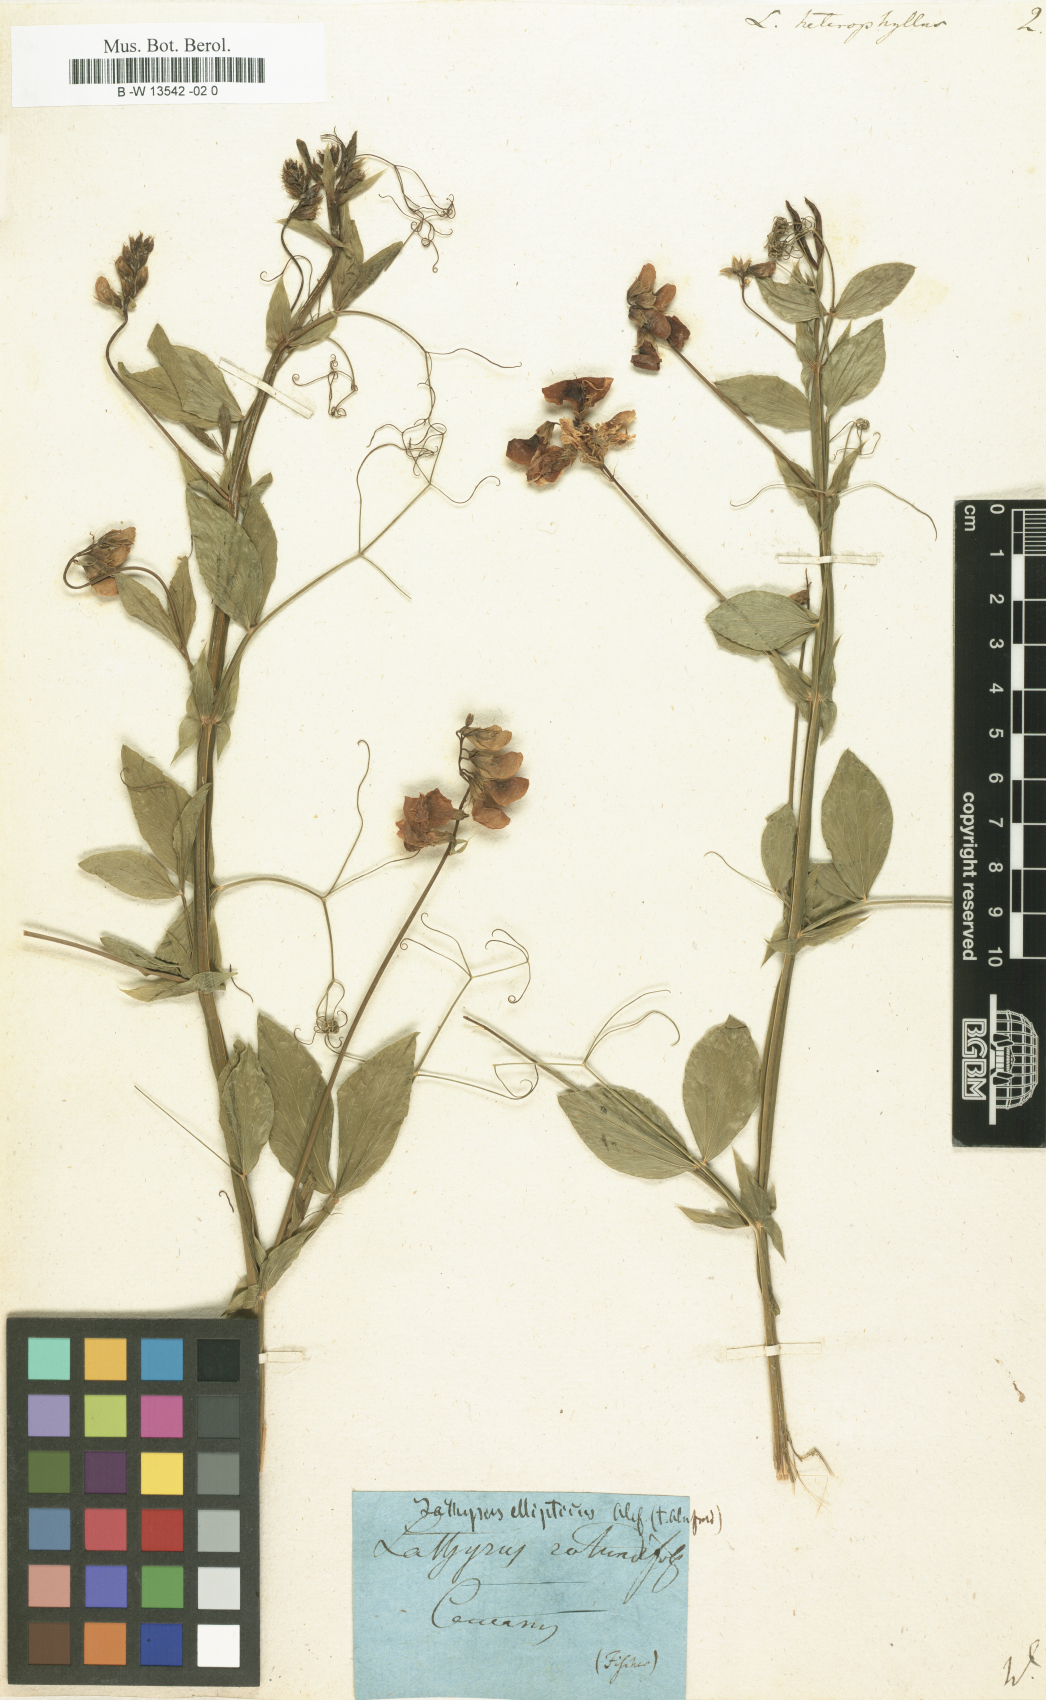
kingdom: Plantae
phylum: Tracheophyta
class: Magnoliopsida
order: Fabales
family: Fabaceae
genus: Lathyrus
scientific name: Lathyrus heterophyllus
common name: Norfolk everlasting-pea
